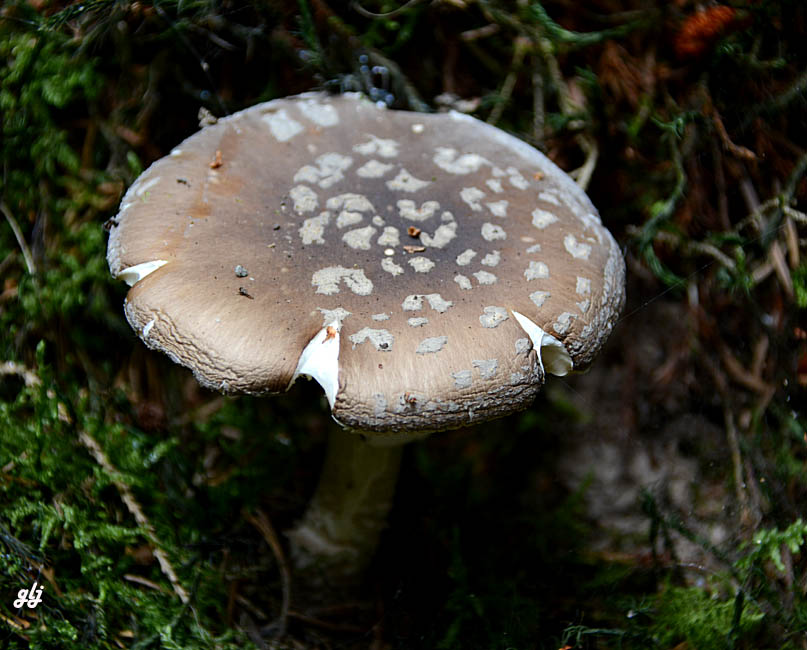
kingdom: Fungi
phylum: Basidiomycota
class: Agaricomycetes
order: Agaricales
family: Amanitaceae
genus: Amanita
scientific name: Amanita
